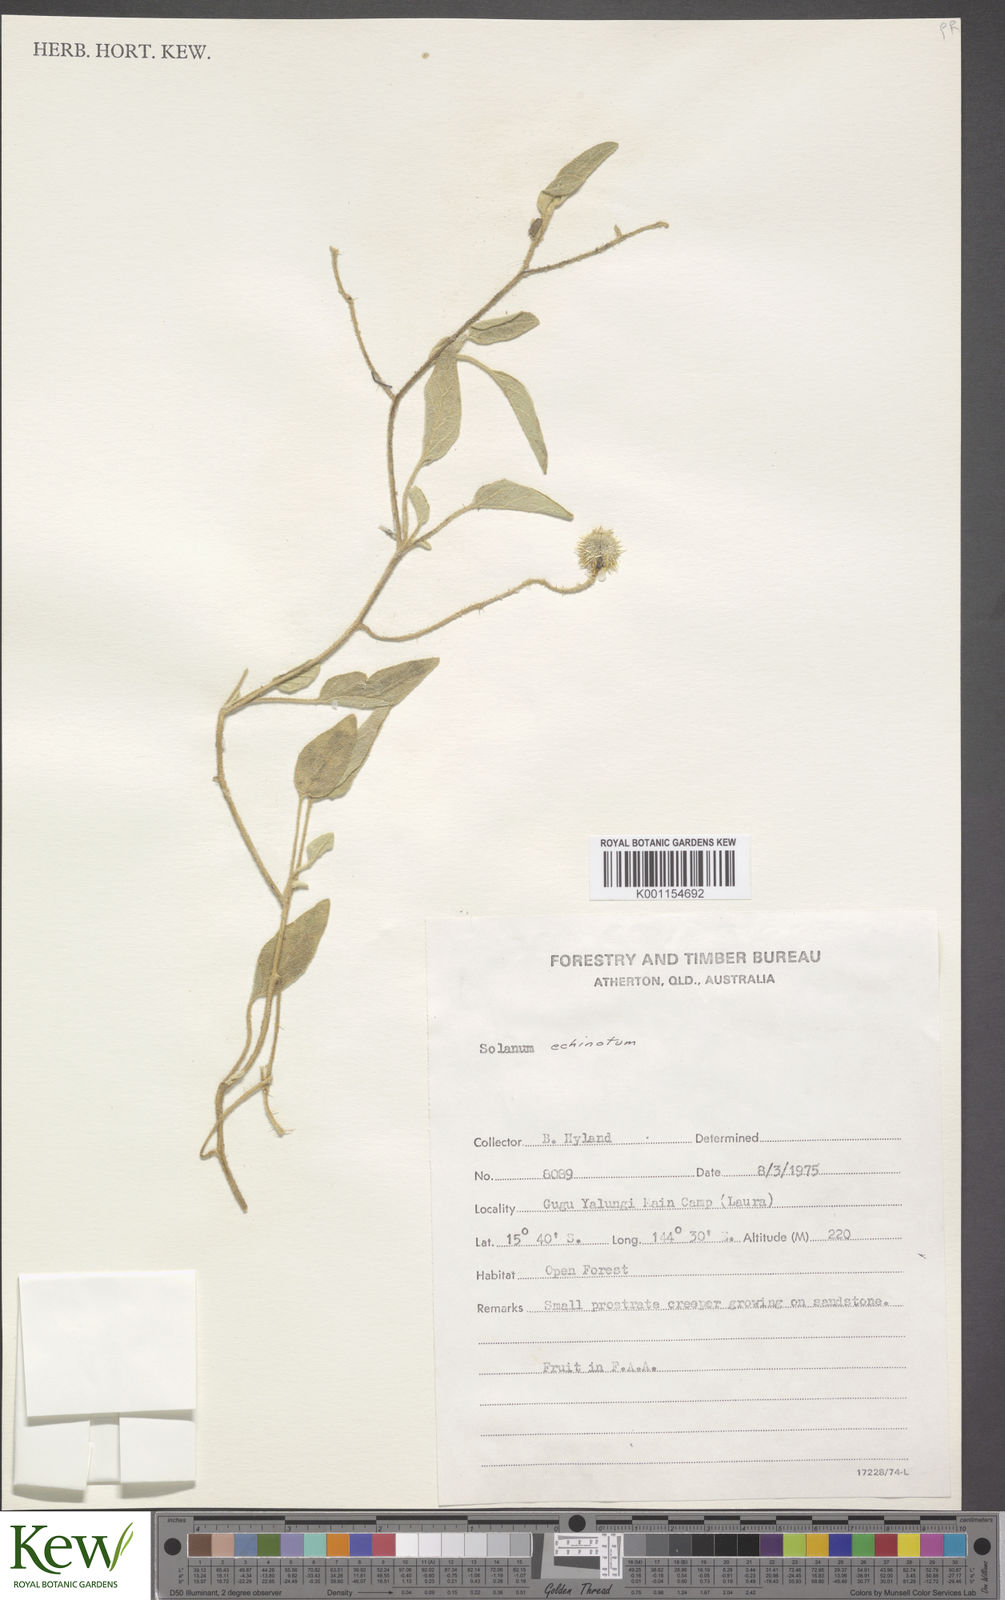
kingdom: Plantae
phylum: Tracheophyta
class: Magnoliopsida
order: Solanales
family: Solanaceae
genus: Solanum
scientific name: Solanum echinatum
